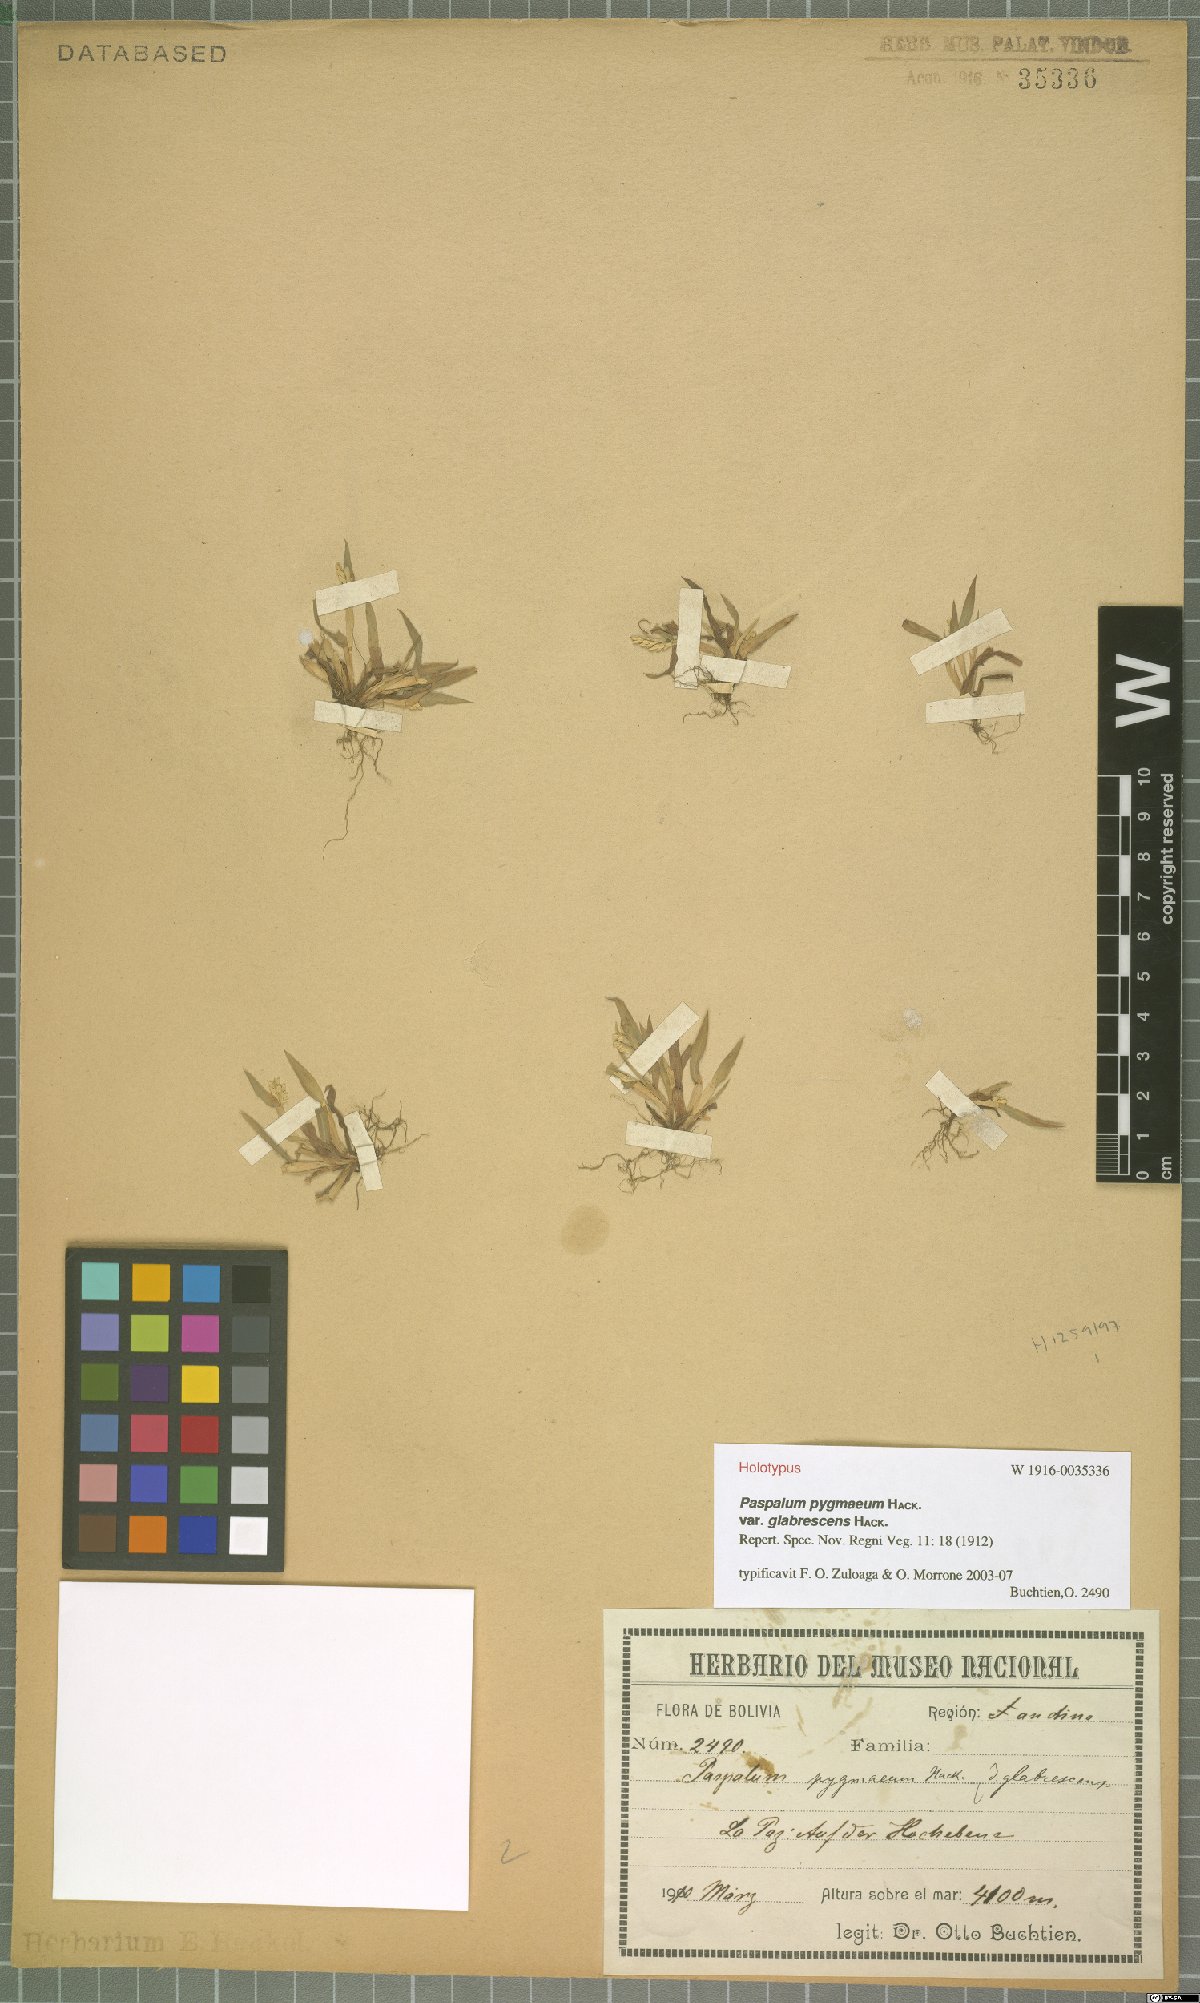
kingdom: Plantae
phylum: Tracheophyta
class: Liliopsida
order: Poales
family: Poaceae
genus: Paspalum
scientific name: Paspalum pygmaeum
